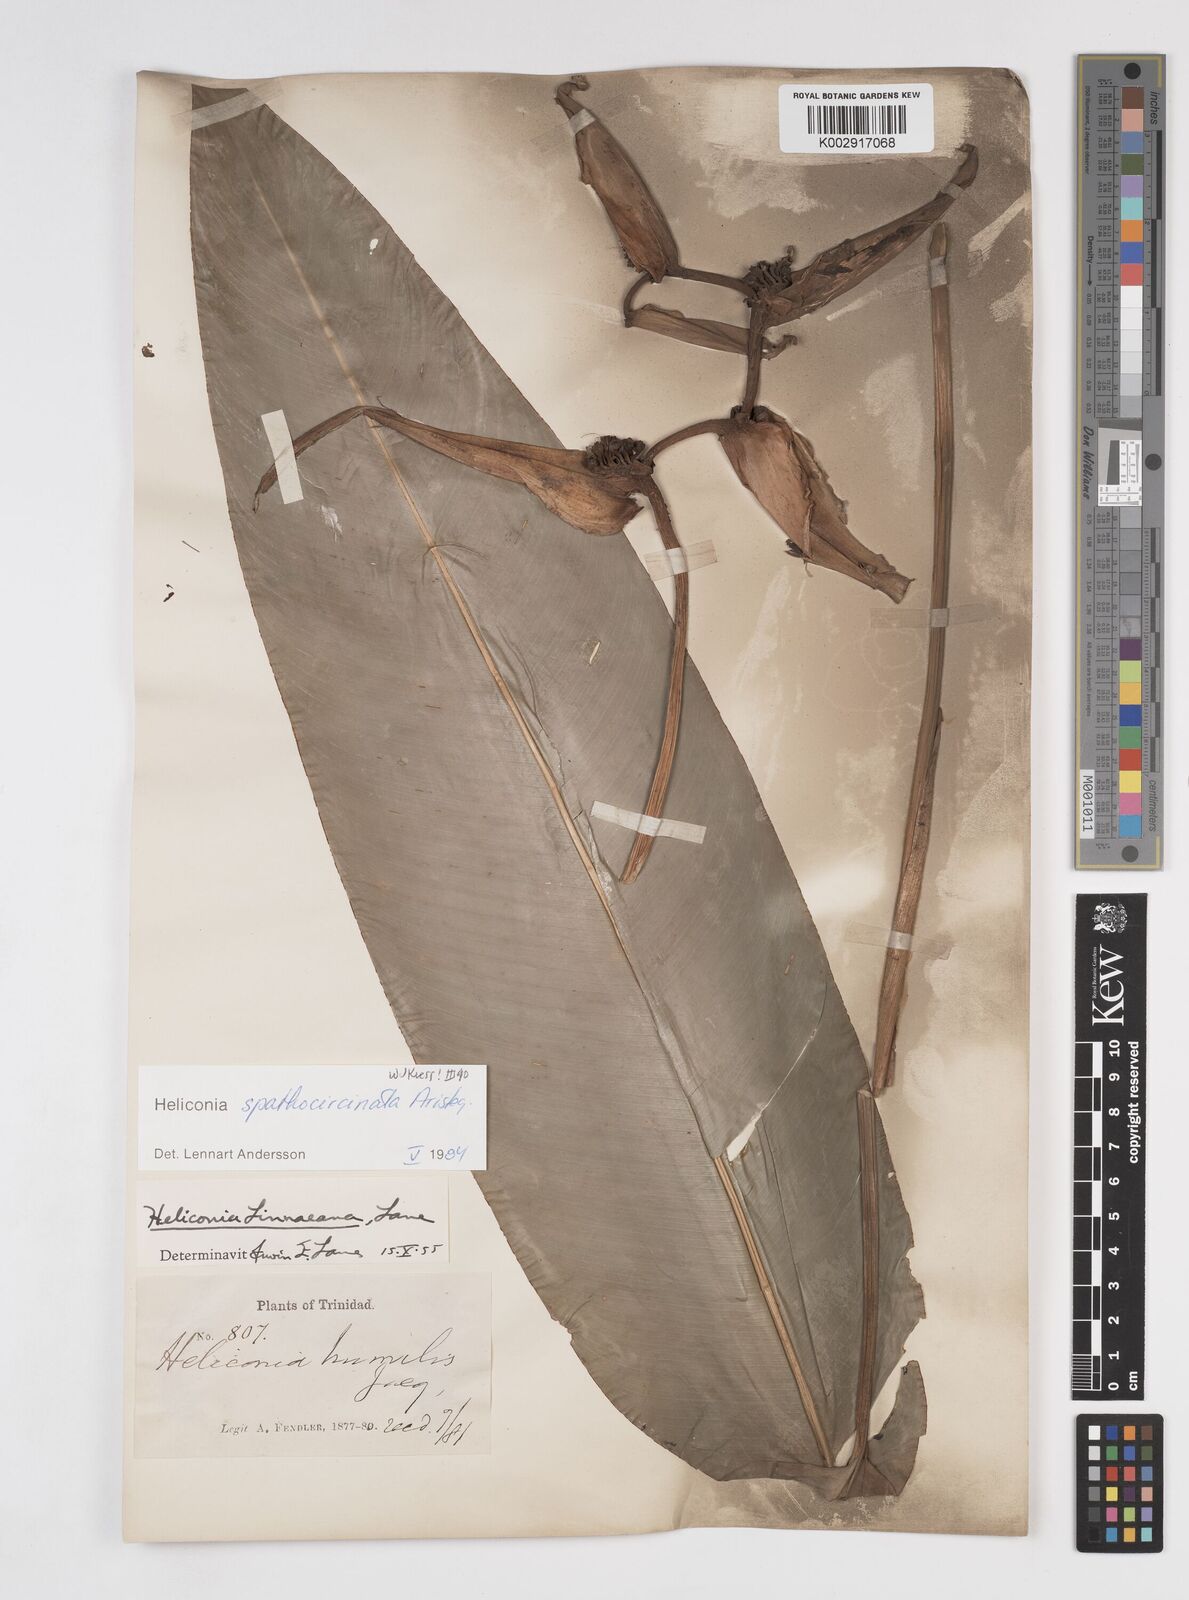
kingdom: Plantae
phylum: Tracheophyta
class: Liliopsida
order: Zingiberales
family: Heliconiaceae
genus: Heliconia
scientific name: Heliconia spathocircinata
